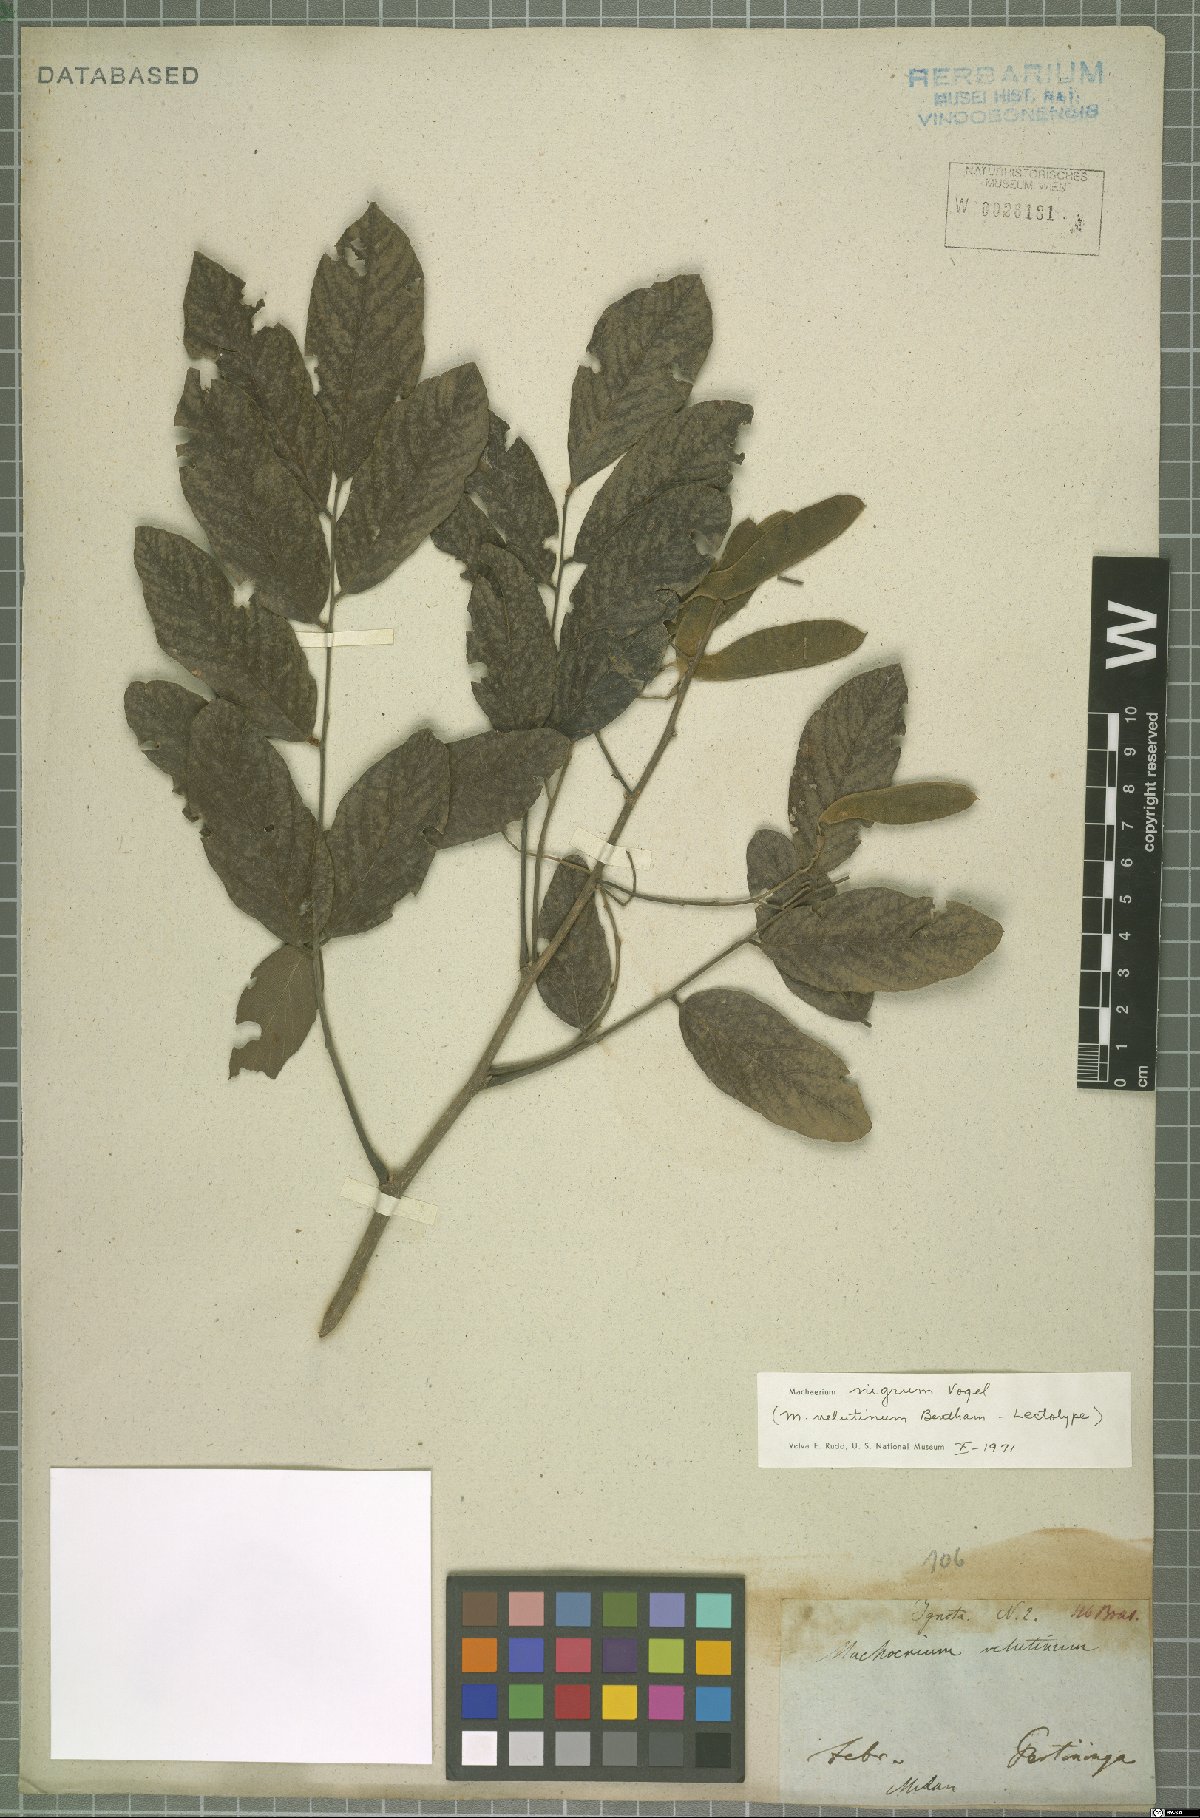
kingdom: Plantae
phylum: Tracheophyta
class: Magnoliopsida
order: Fabales
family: Fabaceae
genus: Machaerium
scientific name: Machaerium nigrum
